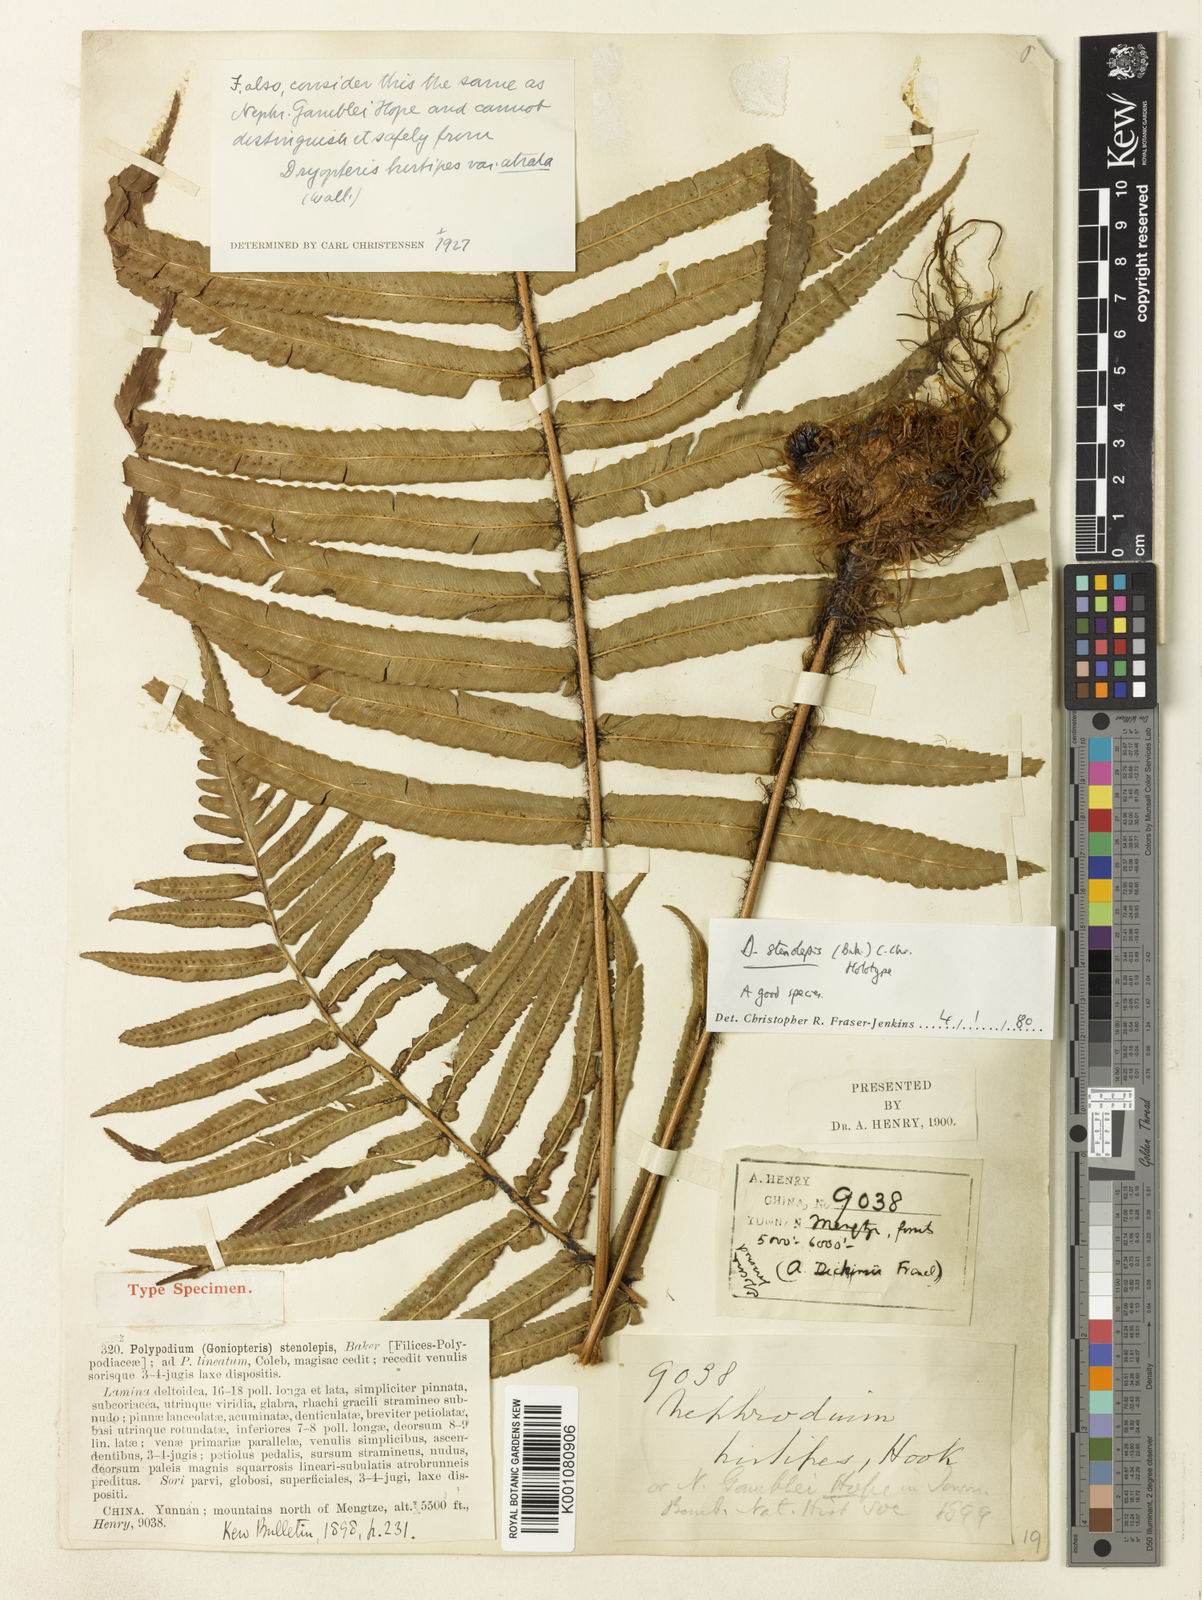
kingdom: Plantae
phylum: Tracheophyta
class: Polypodiopsida
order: Polypodiales
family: Dryopteridaceae
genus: Dryopteris
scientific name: Dryopteris stenolepis
